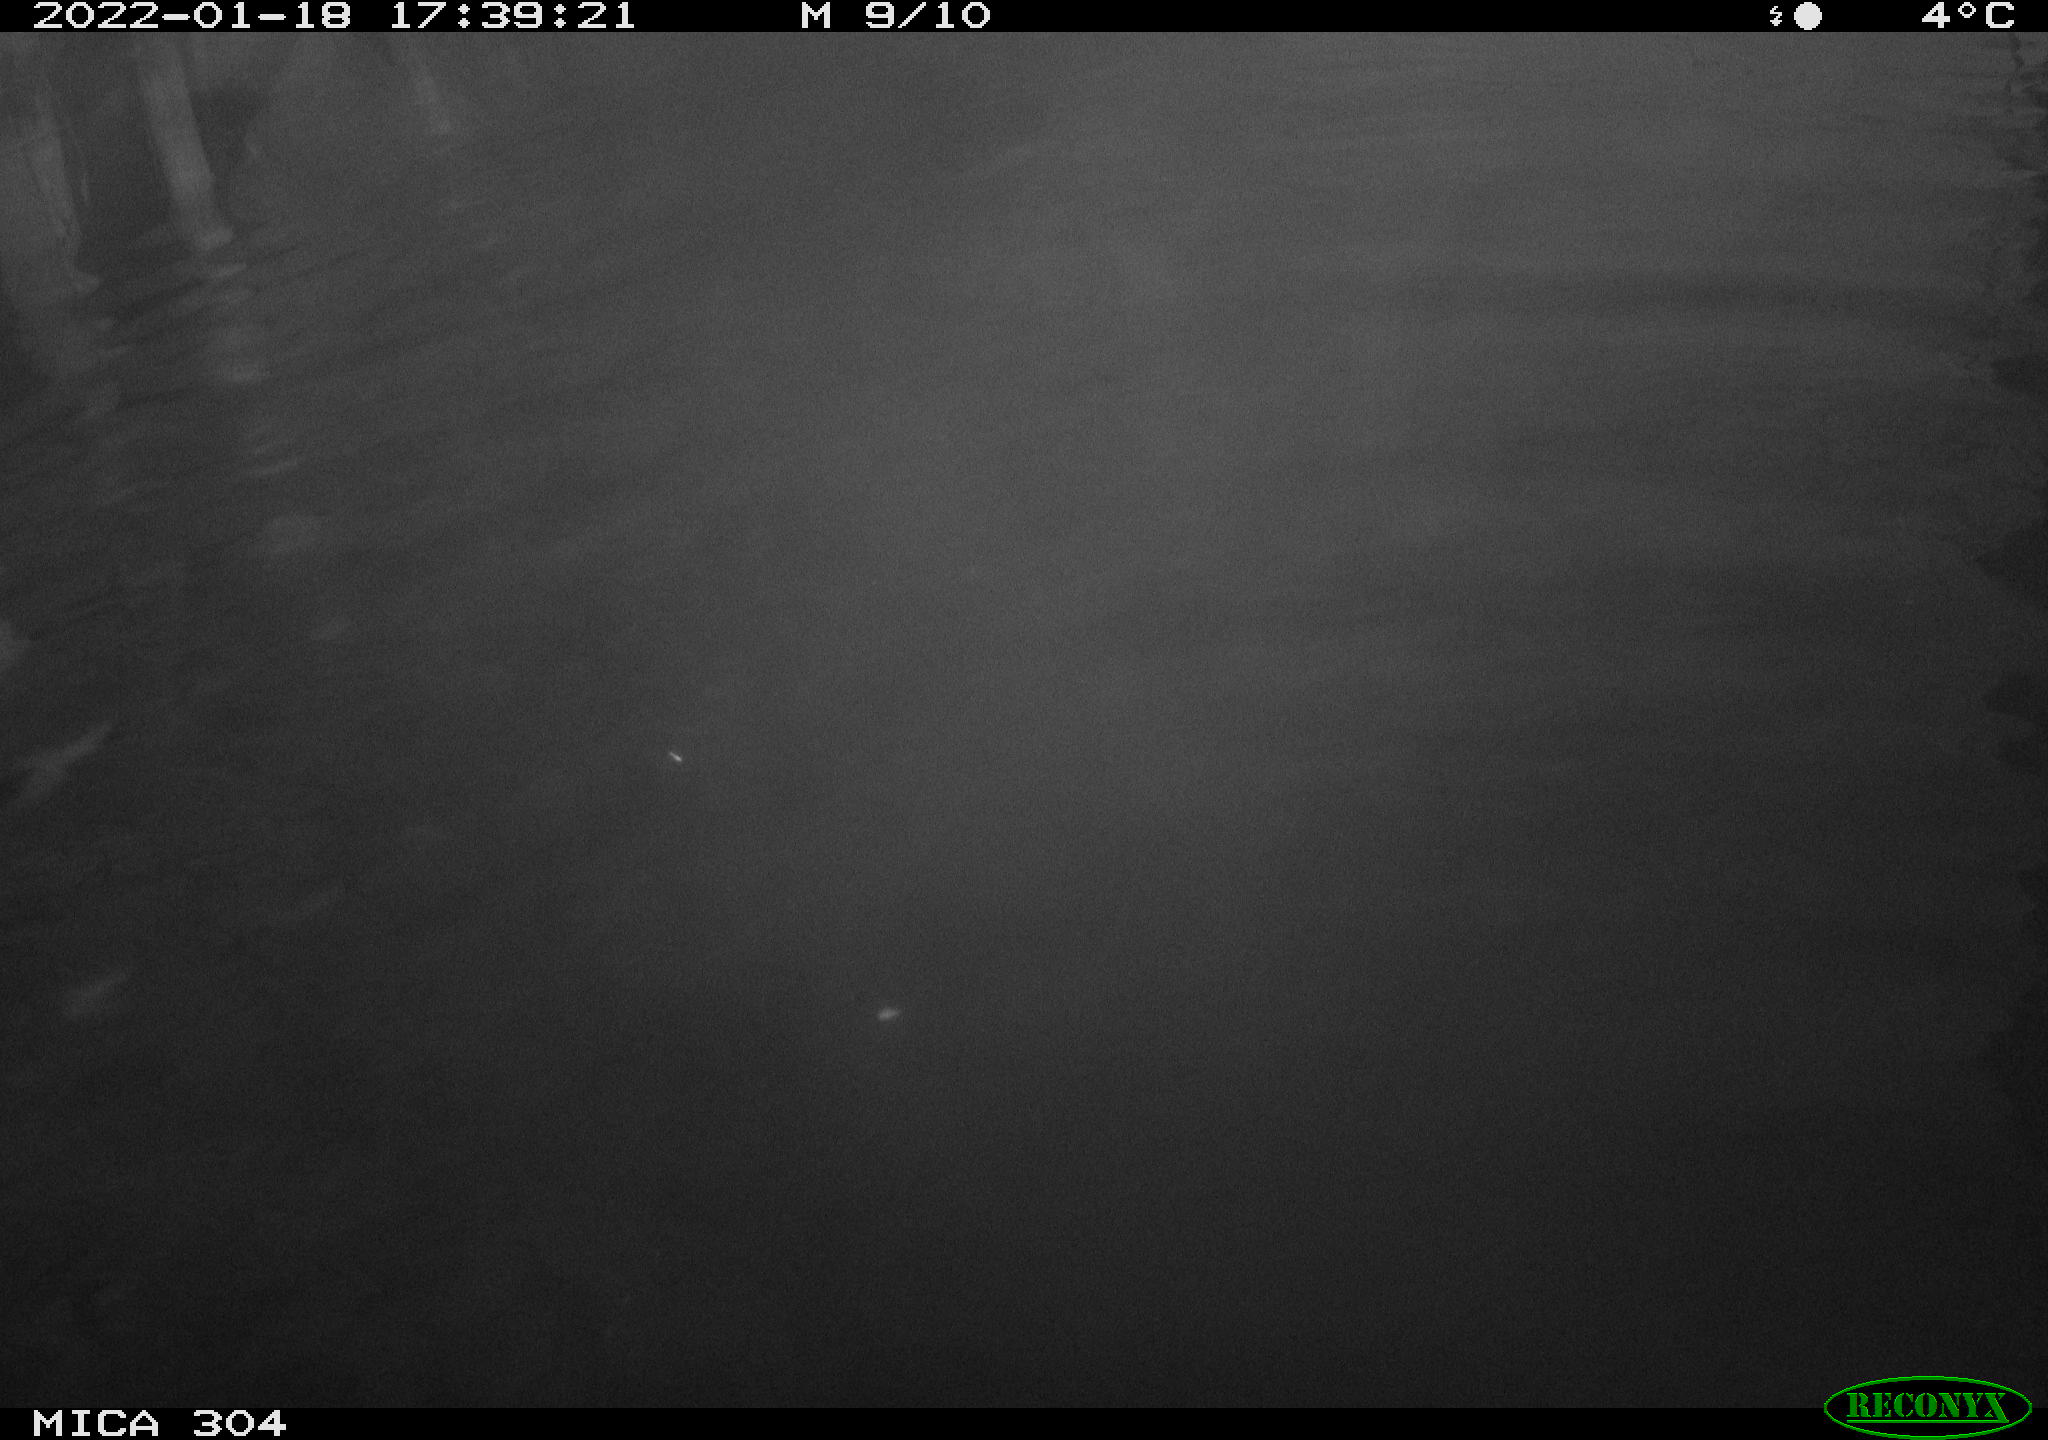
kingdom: Animalia
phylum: Chordata
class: Aves
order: Anseriformes
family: Anatidae
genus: Anas
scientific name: Anas
